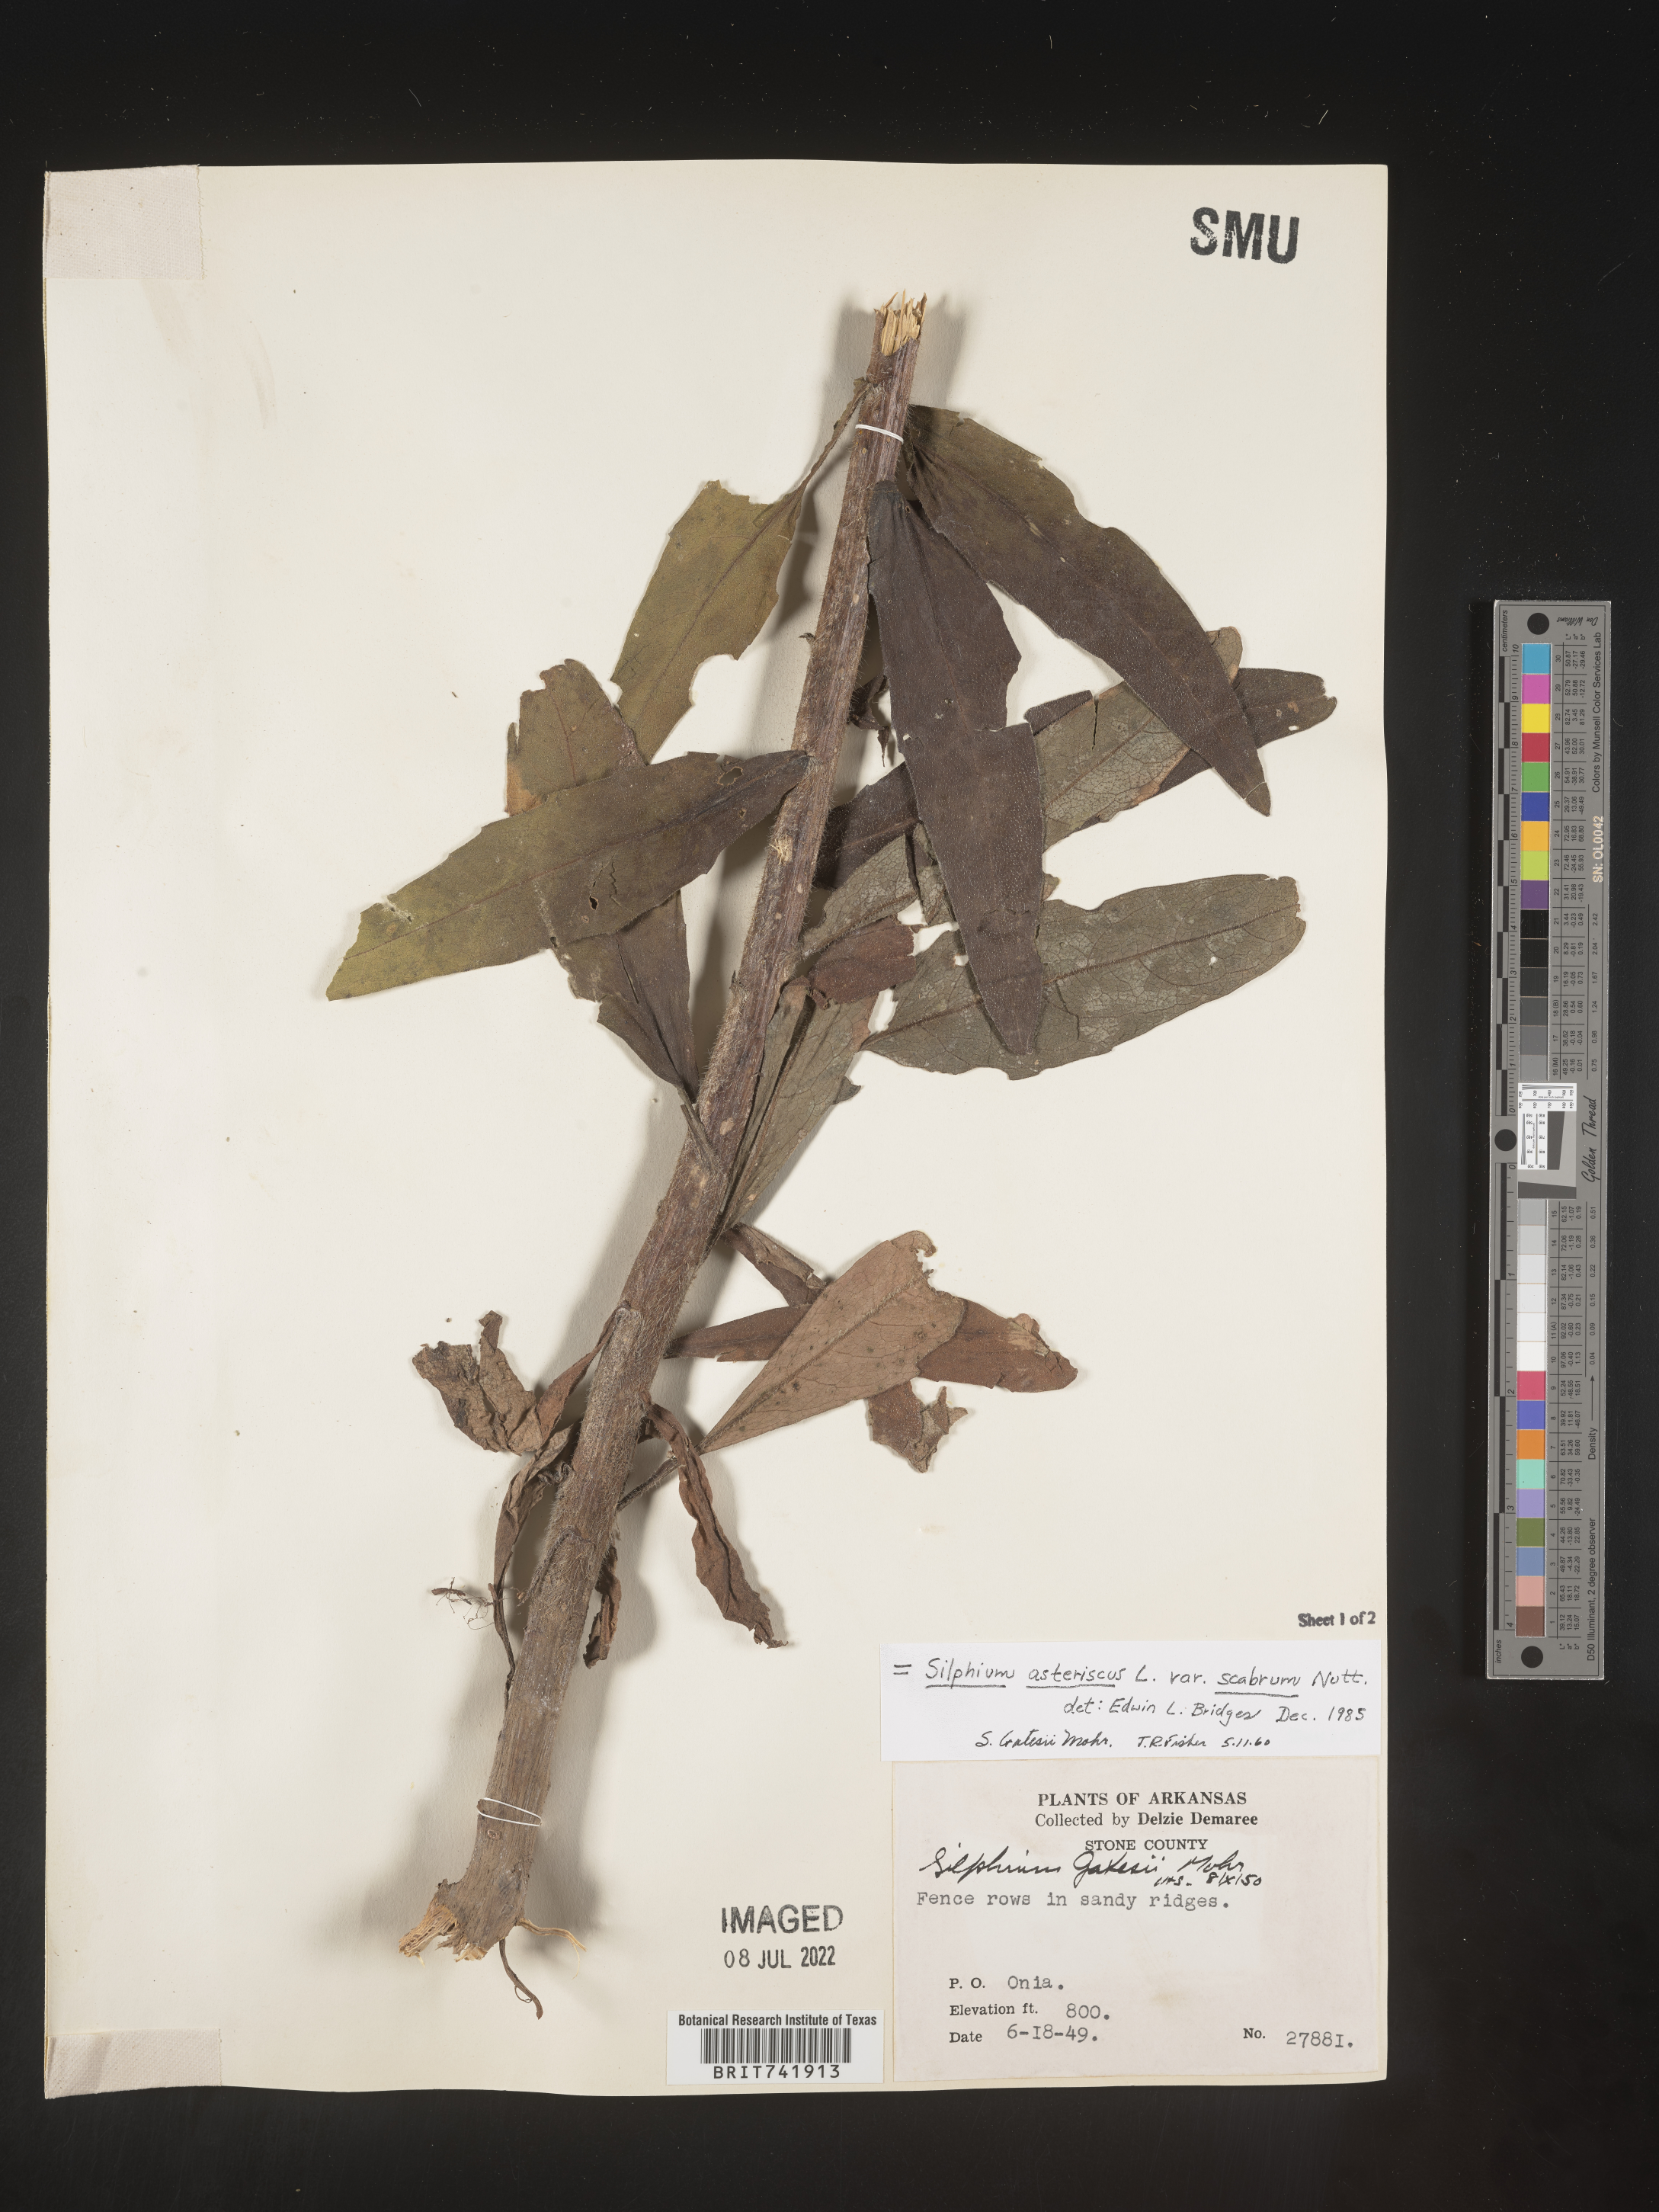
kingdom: Plantae
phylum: Tracheophyta
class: Magnoliopsida
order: Asterales
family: Asteraceae
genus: Silphium
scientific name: Silphium asperrimum
